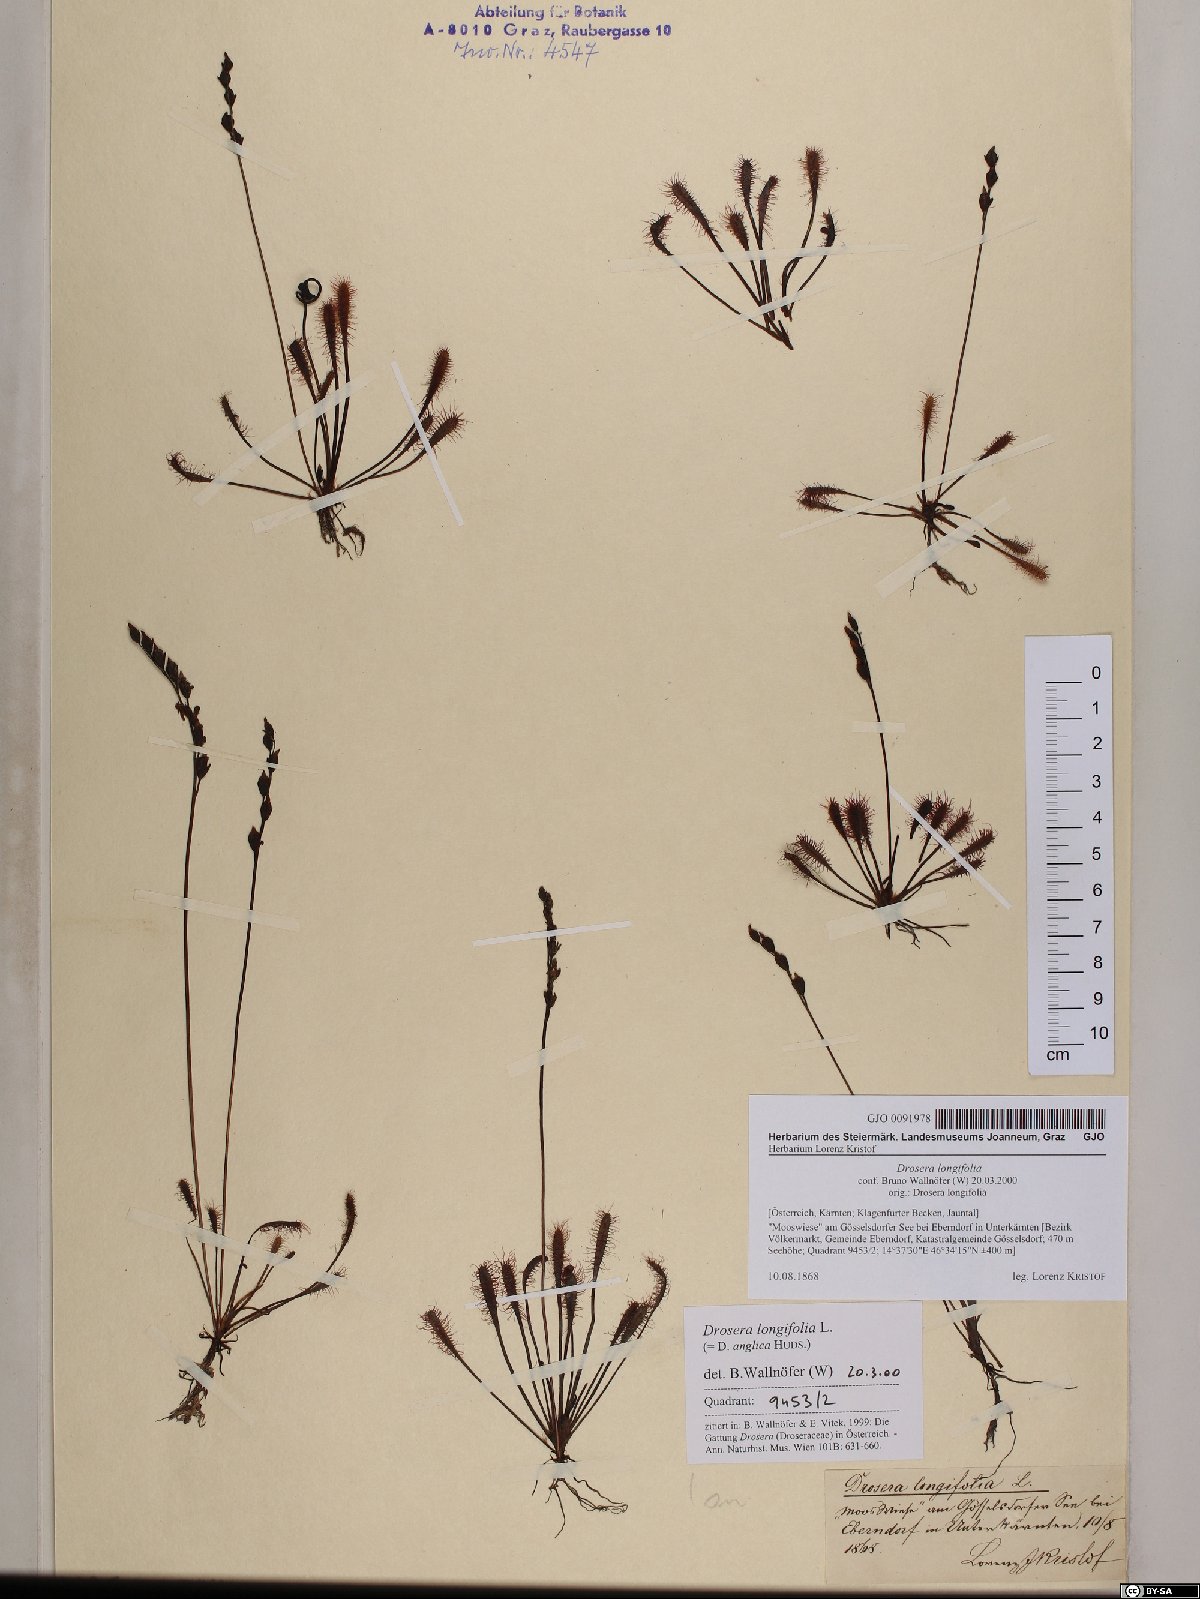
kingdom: Plantae
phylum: Tracheophyta
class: Magnoliopsida
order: Caryophyllales
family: Droseraceae
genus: Drosera
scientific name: Drosera anglica
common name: Great sundew
